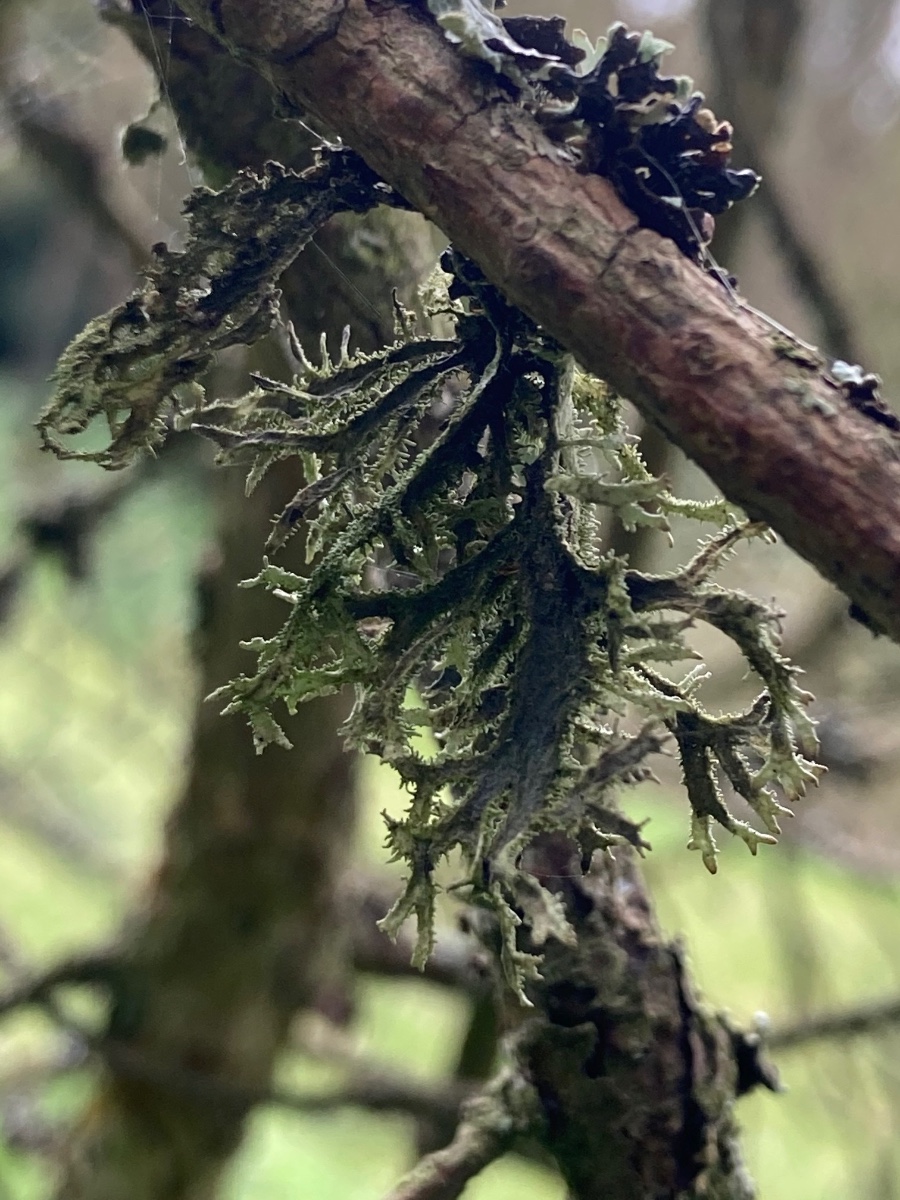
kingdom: Fungi
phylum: Ascomycota
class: Lecanoromycetes
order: Lecanorales
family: Parmeliaceae
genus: Pseudevernia
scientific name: Pseudevernia furfuracea
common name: grå fyrrelav
